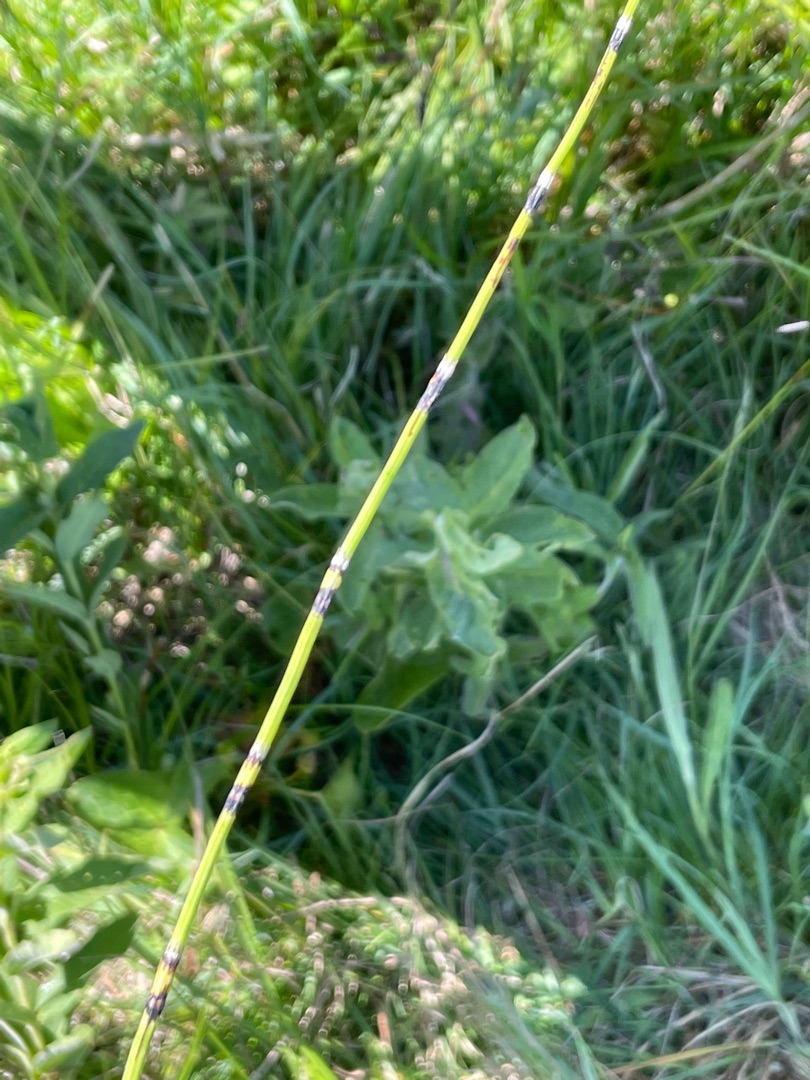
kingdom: Plantae
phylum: Tracheophyta
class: Polypodiopsida
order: Equisetales
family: Equisetaceae
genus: Equisetum
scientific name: Equisetum variegatum
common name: Liden padderok
